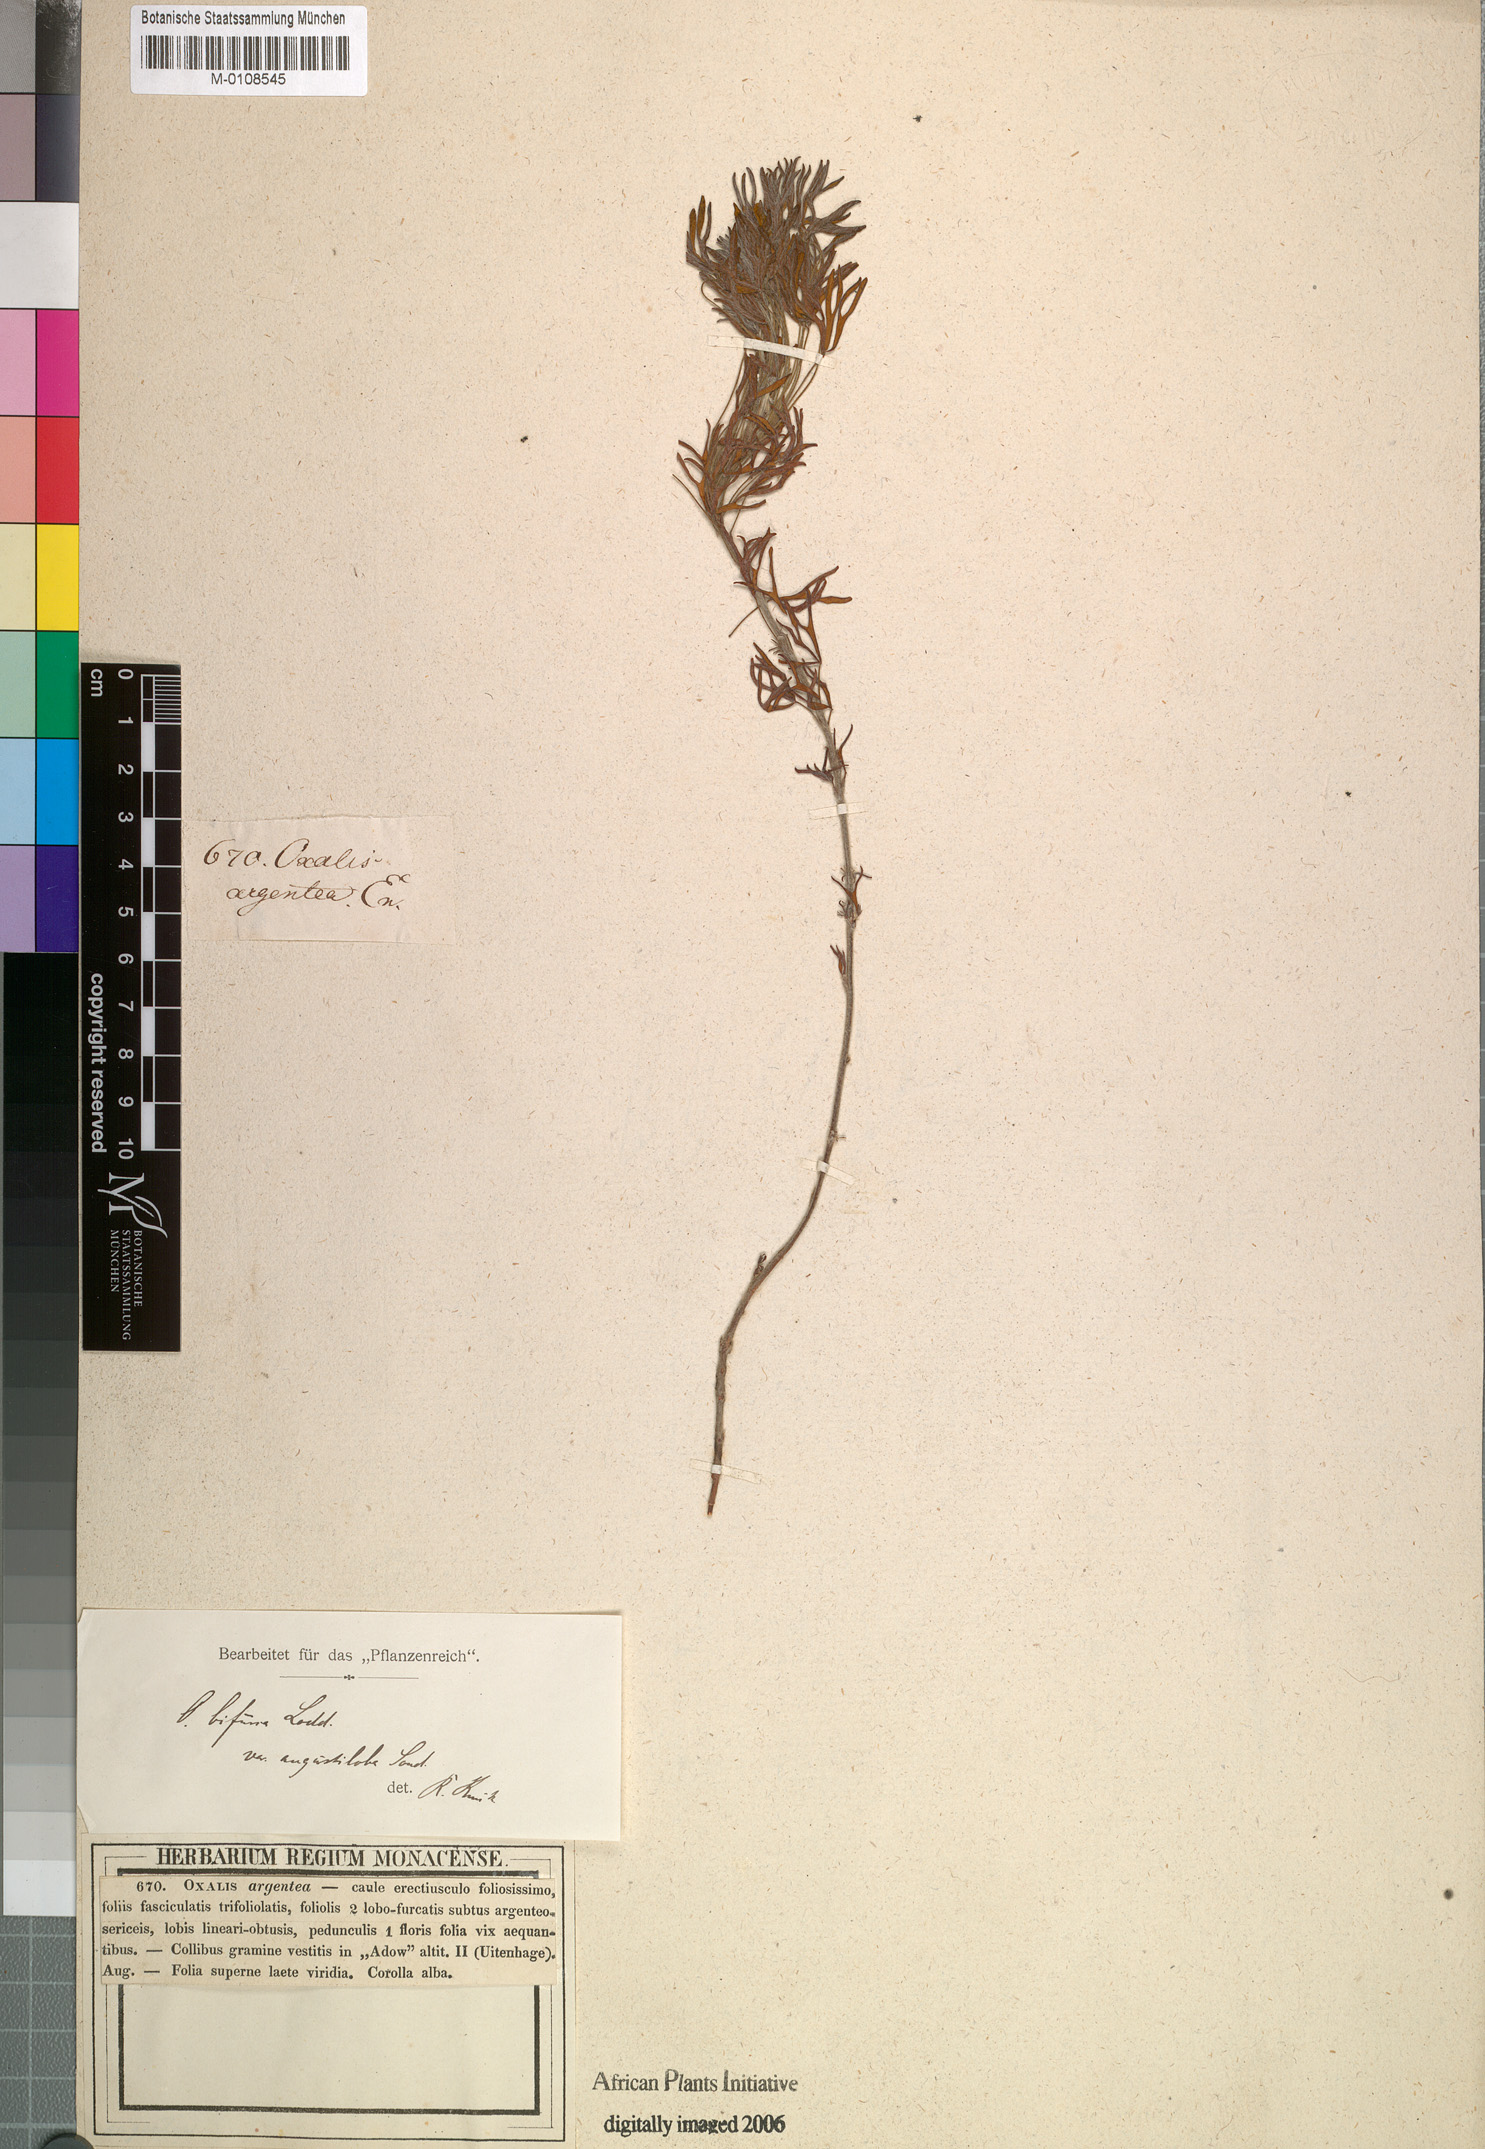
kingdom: Plantae
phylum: Tracheophyta
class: Magnoliopsida
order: Oxalidales
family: Oxalidaceae
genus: Oxalis
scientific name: Oxalis bifurca
